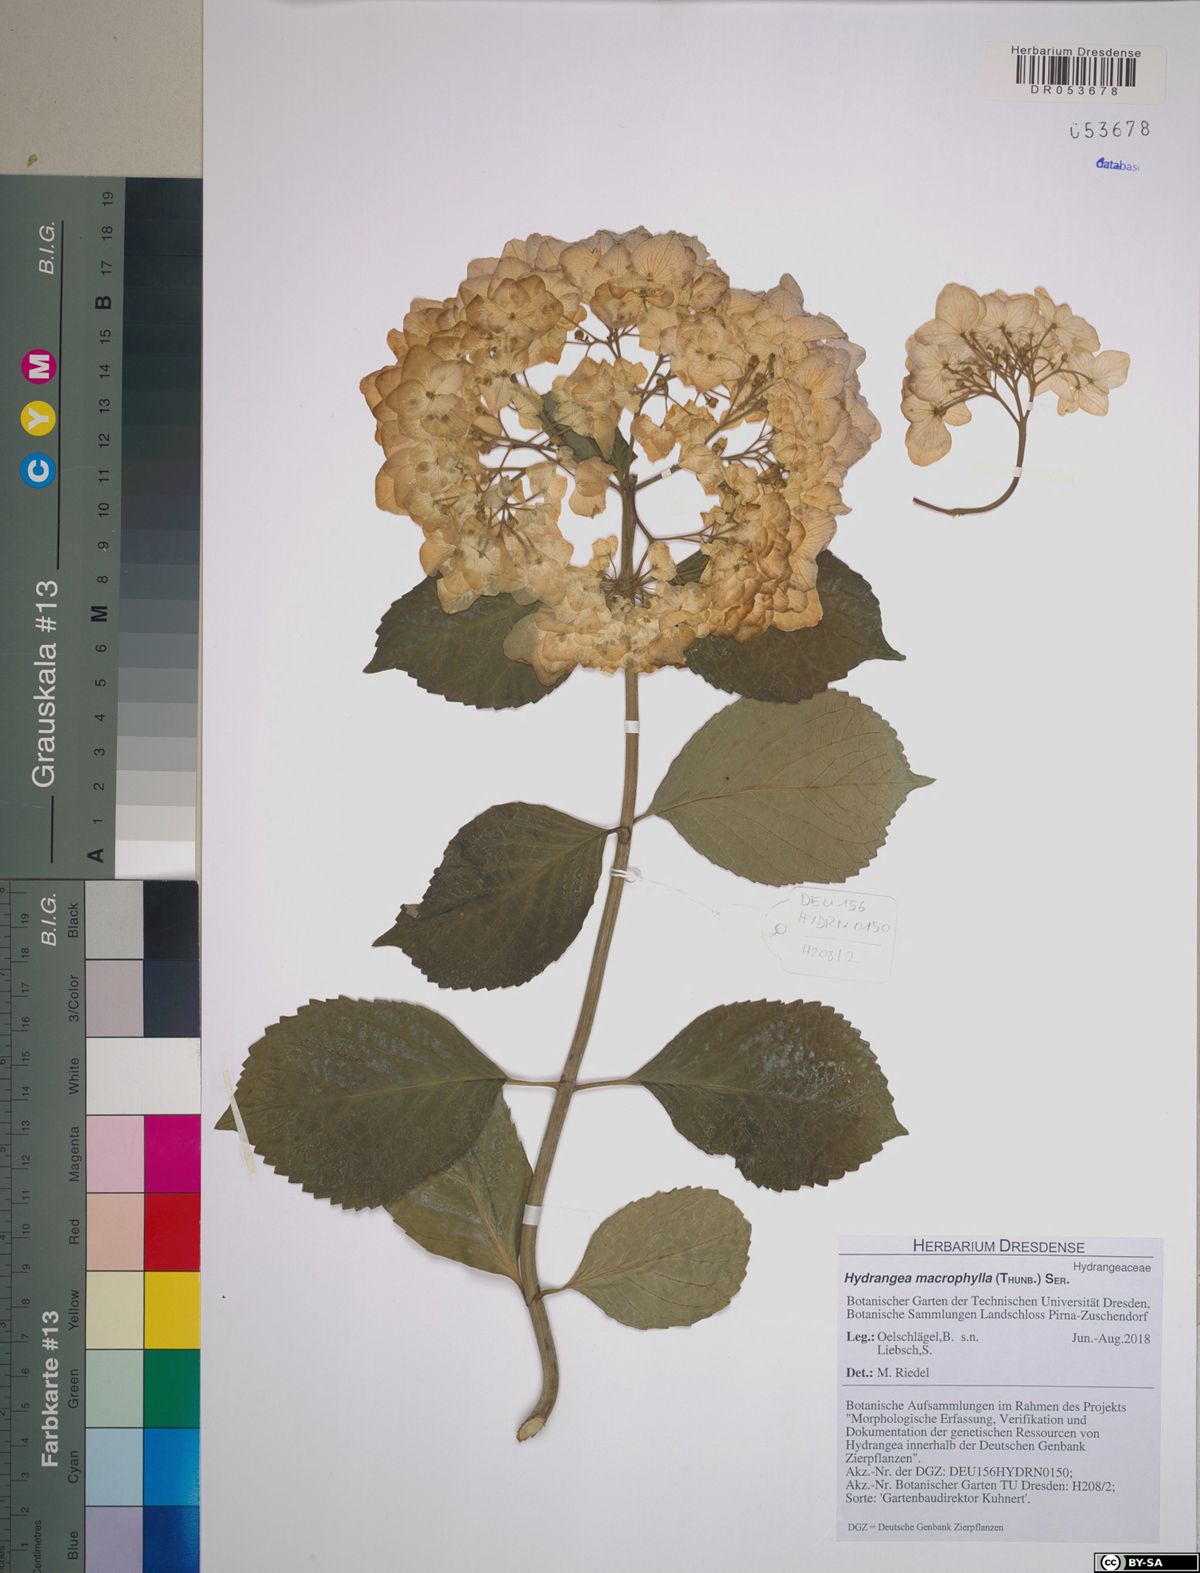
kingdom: Plantae
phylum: Tracheophyta
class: Magnoliopsida
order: Cornales
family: Hydrangeaceae
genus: Hydrangea
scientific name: Hydrangea macrophylla
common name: Hydrangea
